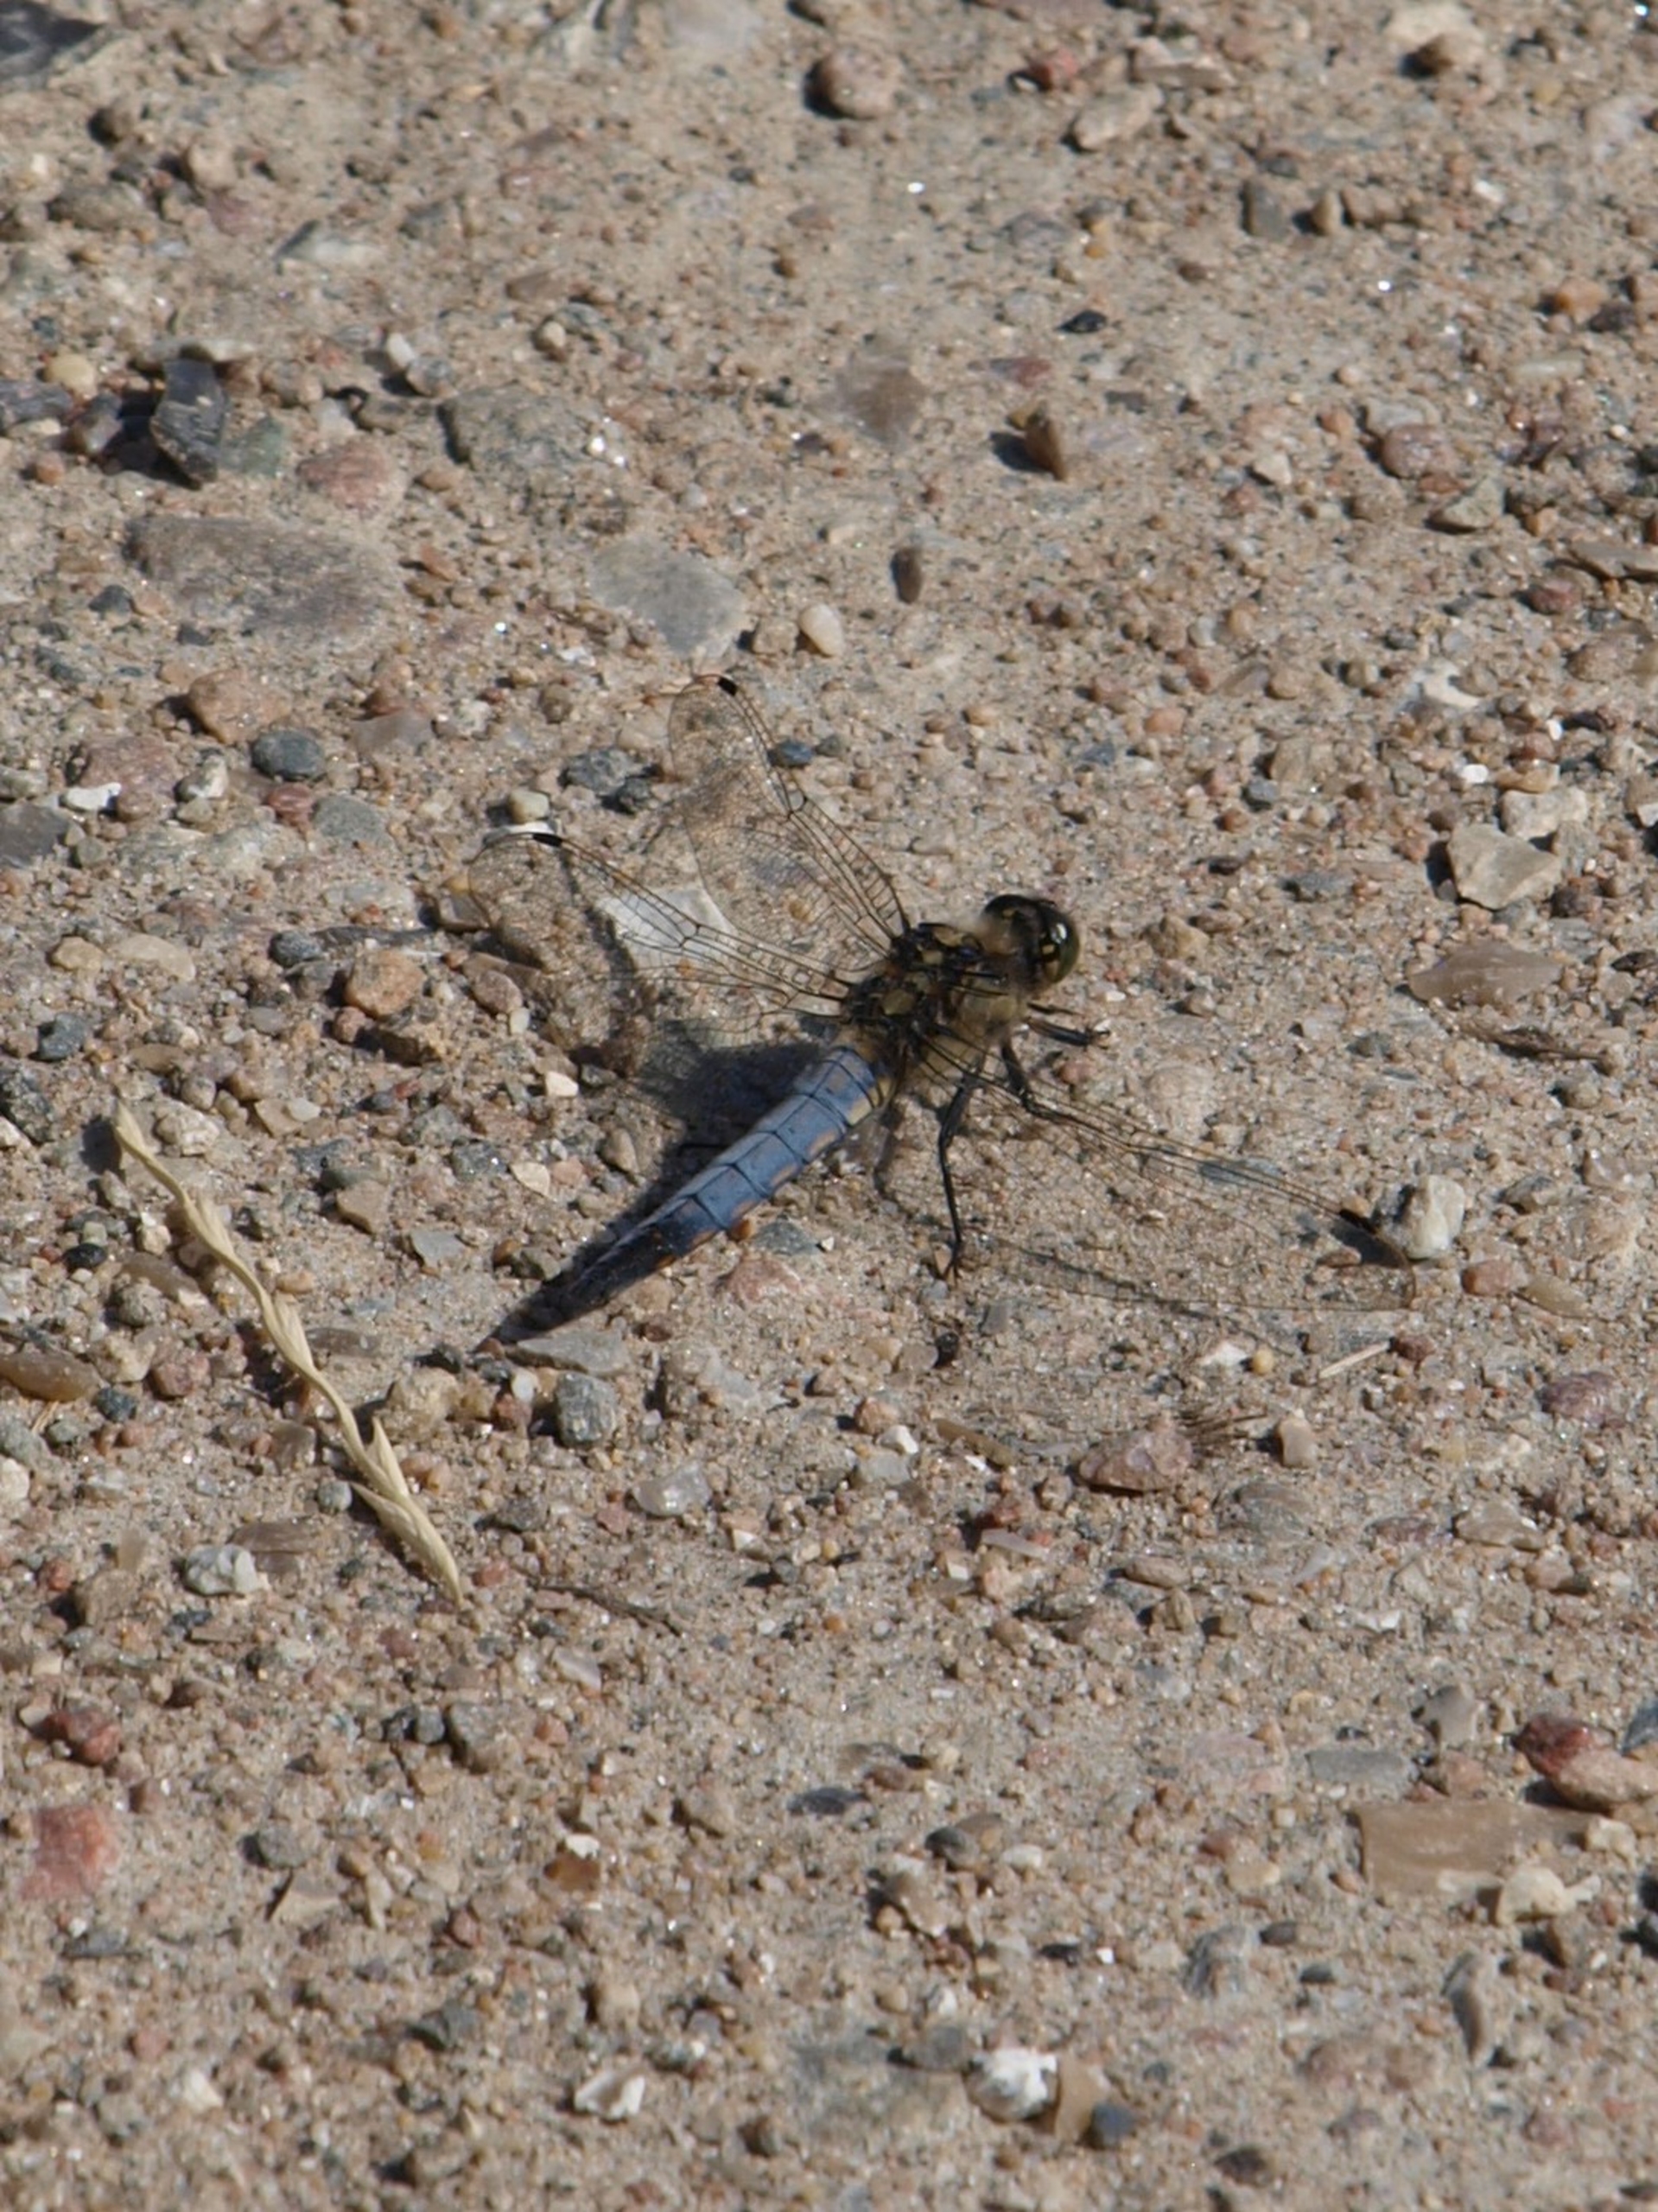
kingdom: Animalia
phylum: Arthropoda
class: Insecta
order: Odonata
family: Libellulidae
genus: Orthetrum
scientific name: Orthetrum cancellatum
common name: Stor blåpil
